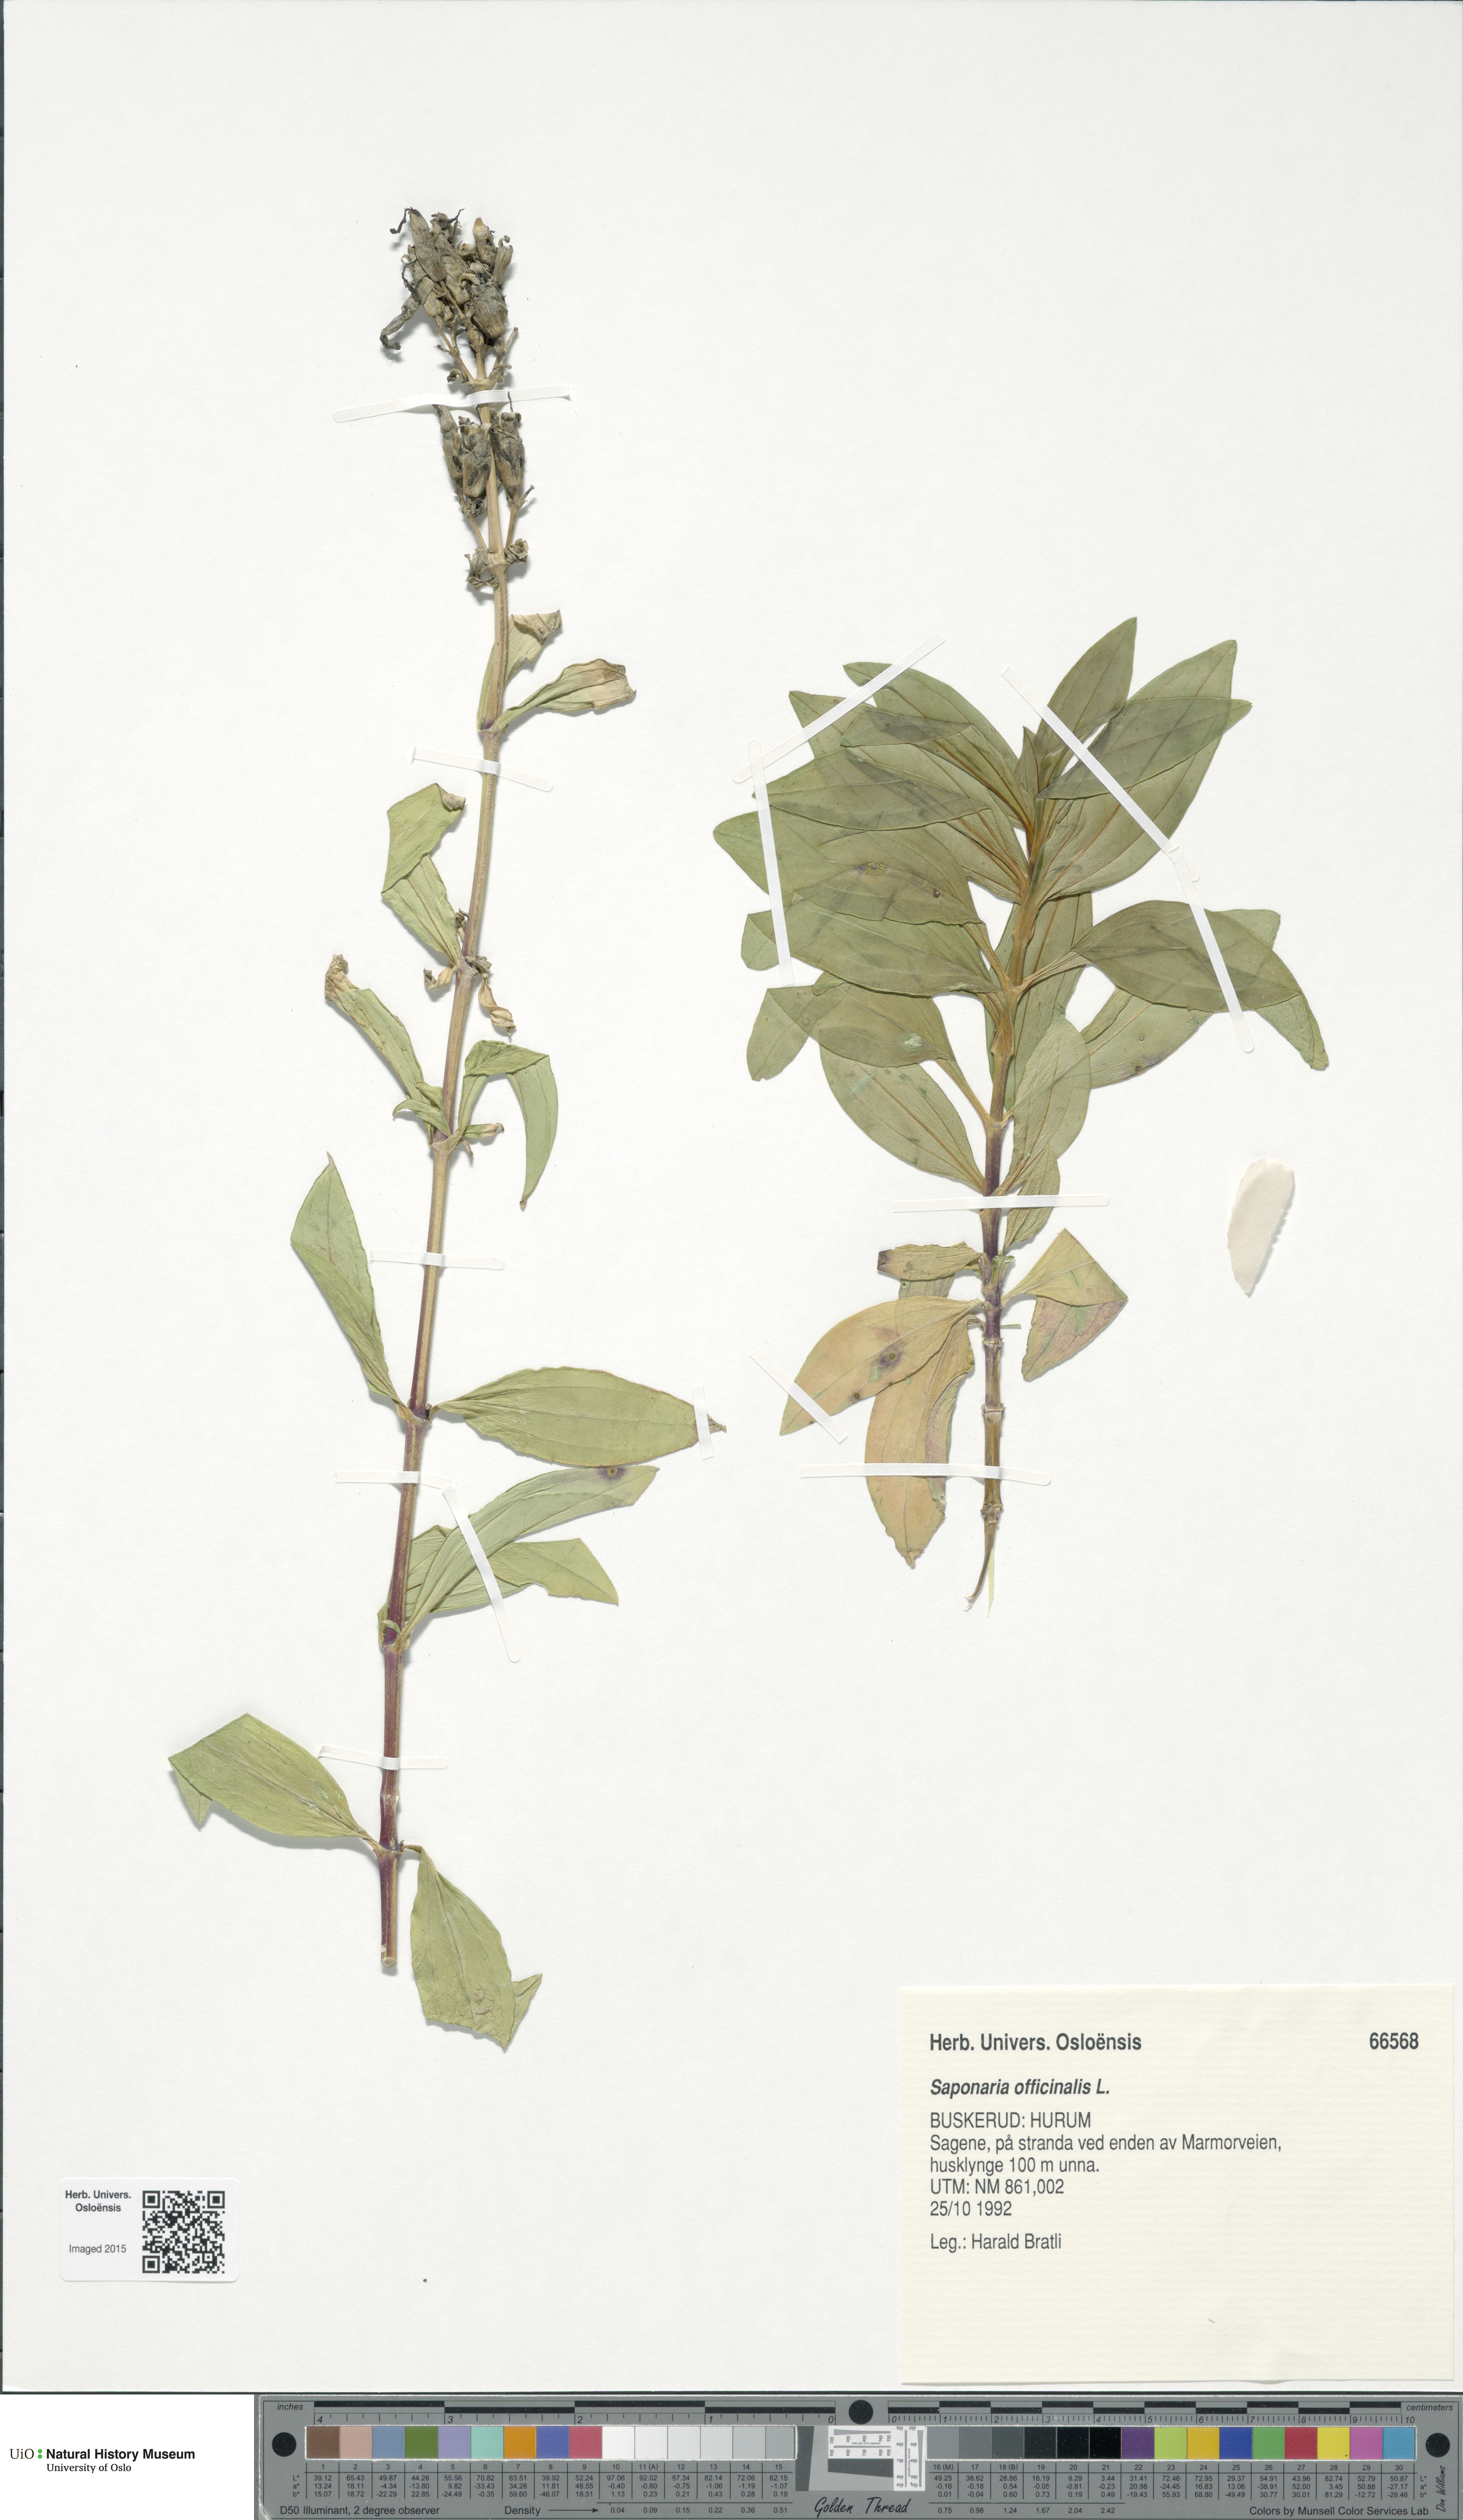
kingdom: Plantae
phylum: Tracheophyta
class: Magnoliopsida
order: Caryophyllales
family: Caryophyllaceae
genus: Saponaria
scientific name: Saponaria officinalis
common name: Soapwort
